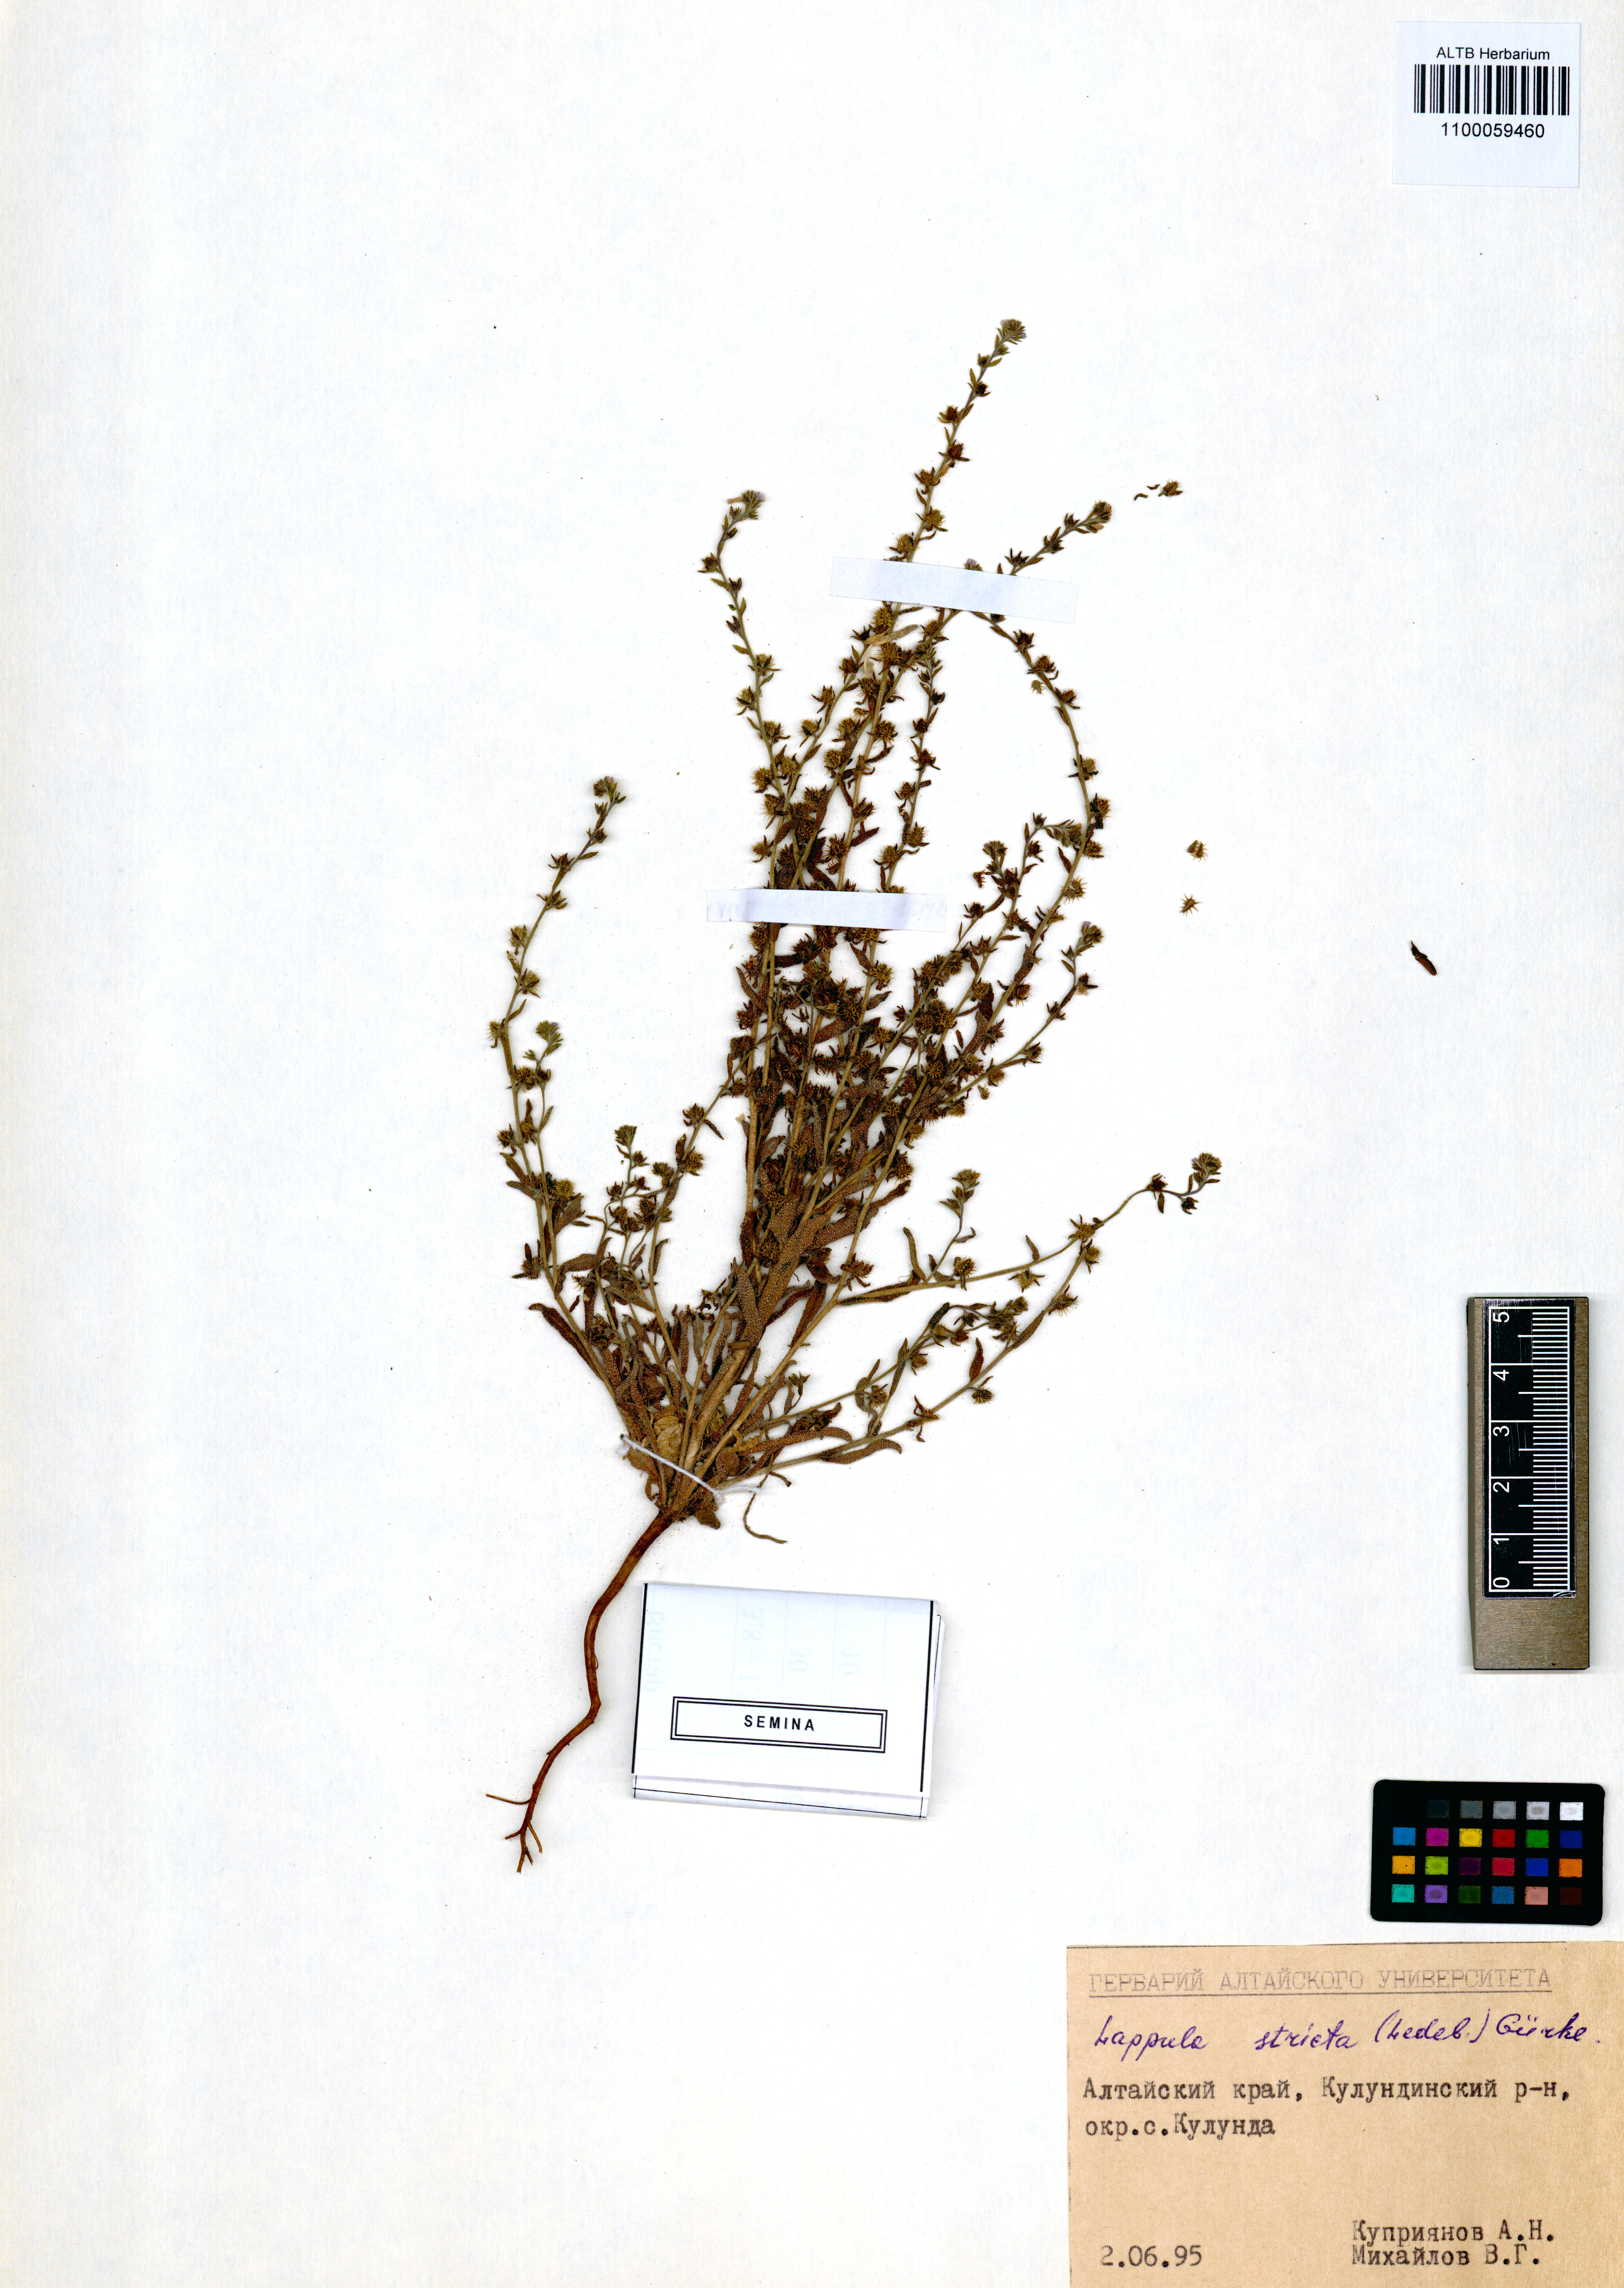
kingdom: Plantae
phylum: Tracheophyta
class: Magnoliopsida
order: Boraginales
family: Boraginaceae
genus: Lappula
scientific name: Lappula stricta
